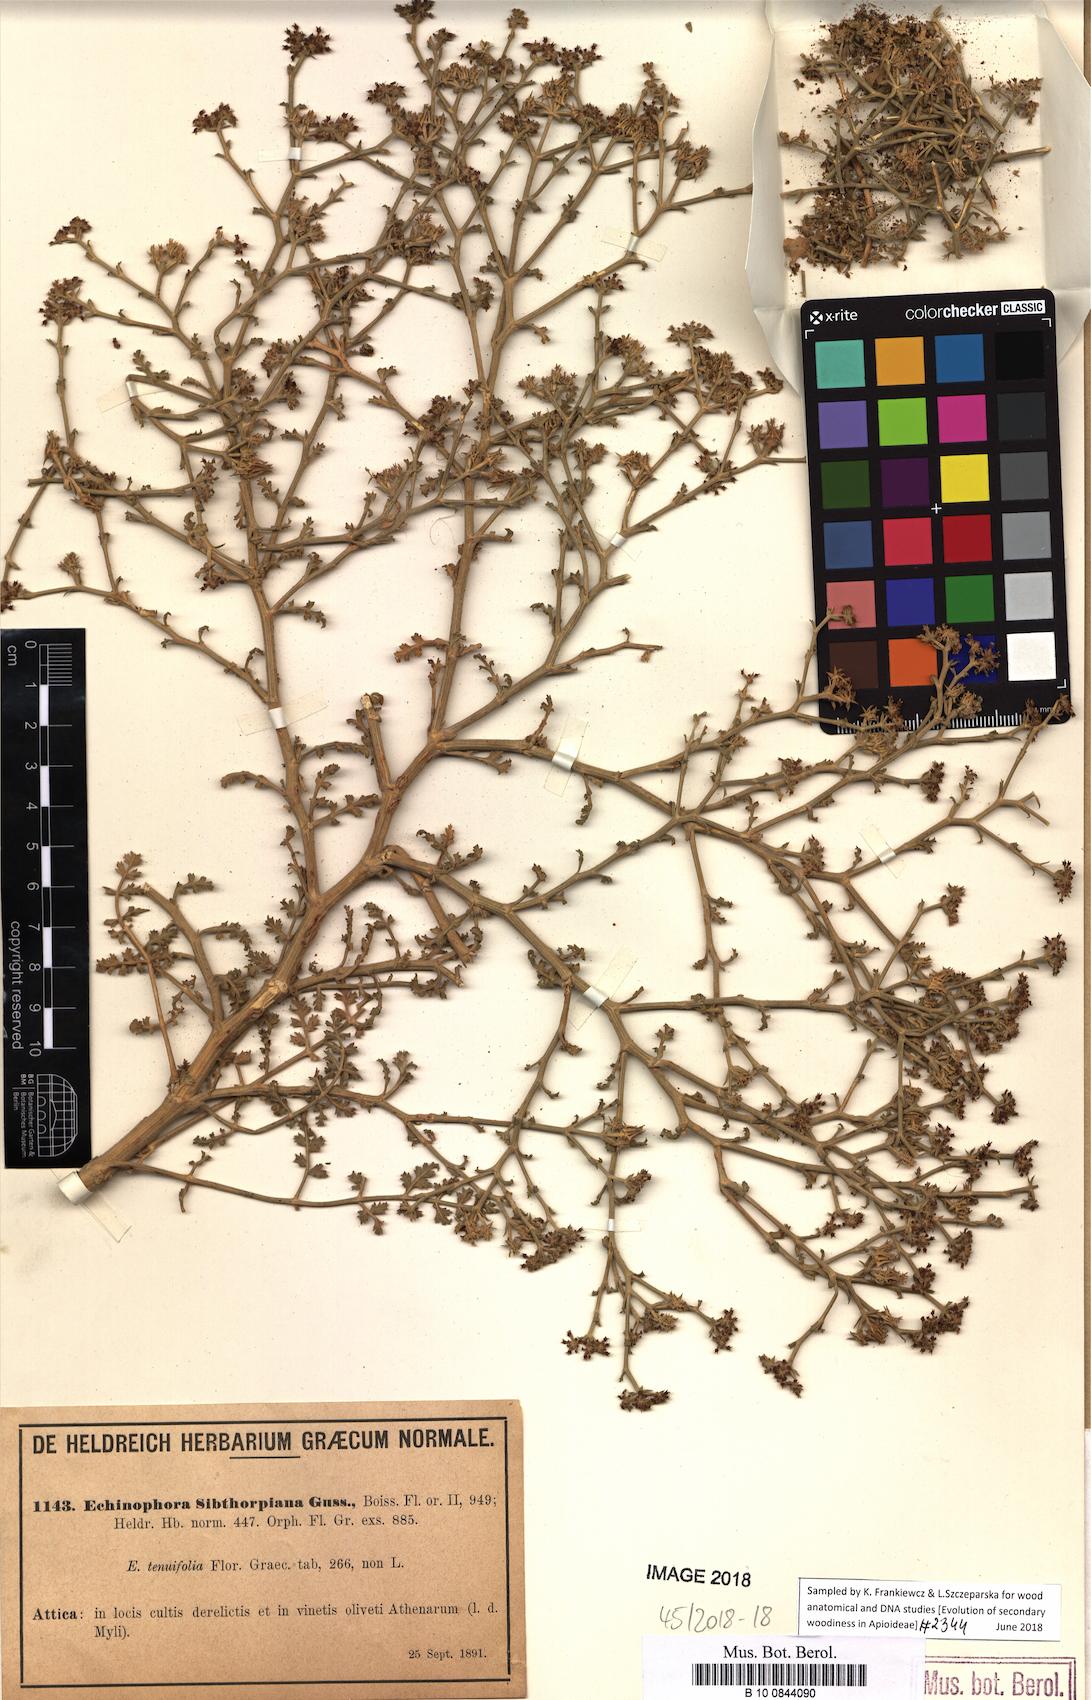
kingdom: Plantae
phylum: Tracheophyta
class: Magnoliopsida
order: Apiales
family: Apiaceae
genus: Echinophora
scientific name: Echinophora sibthorpiana
